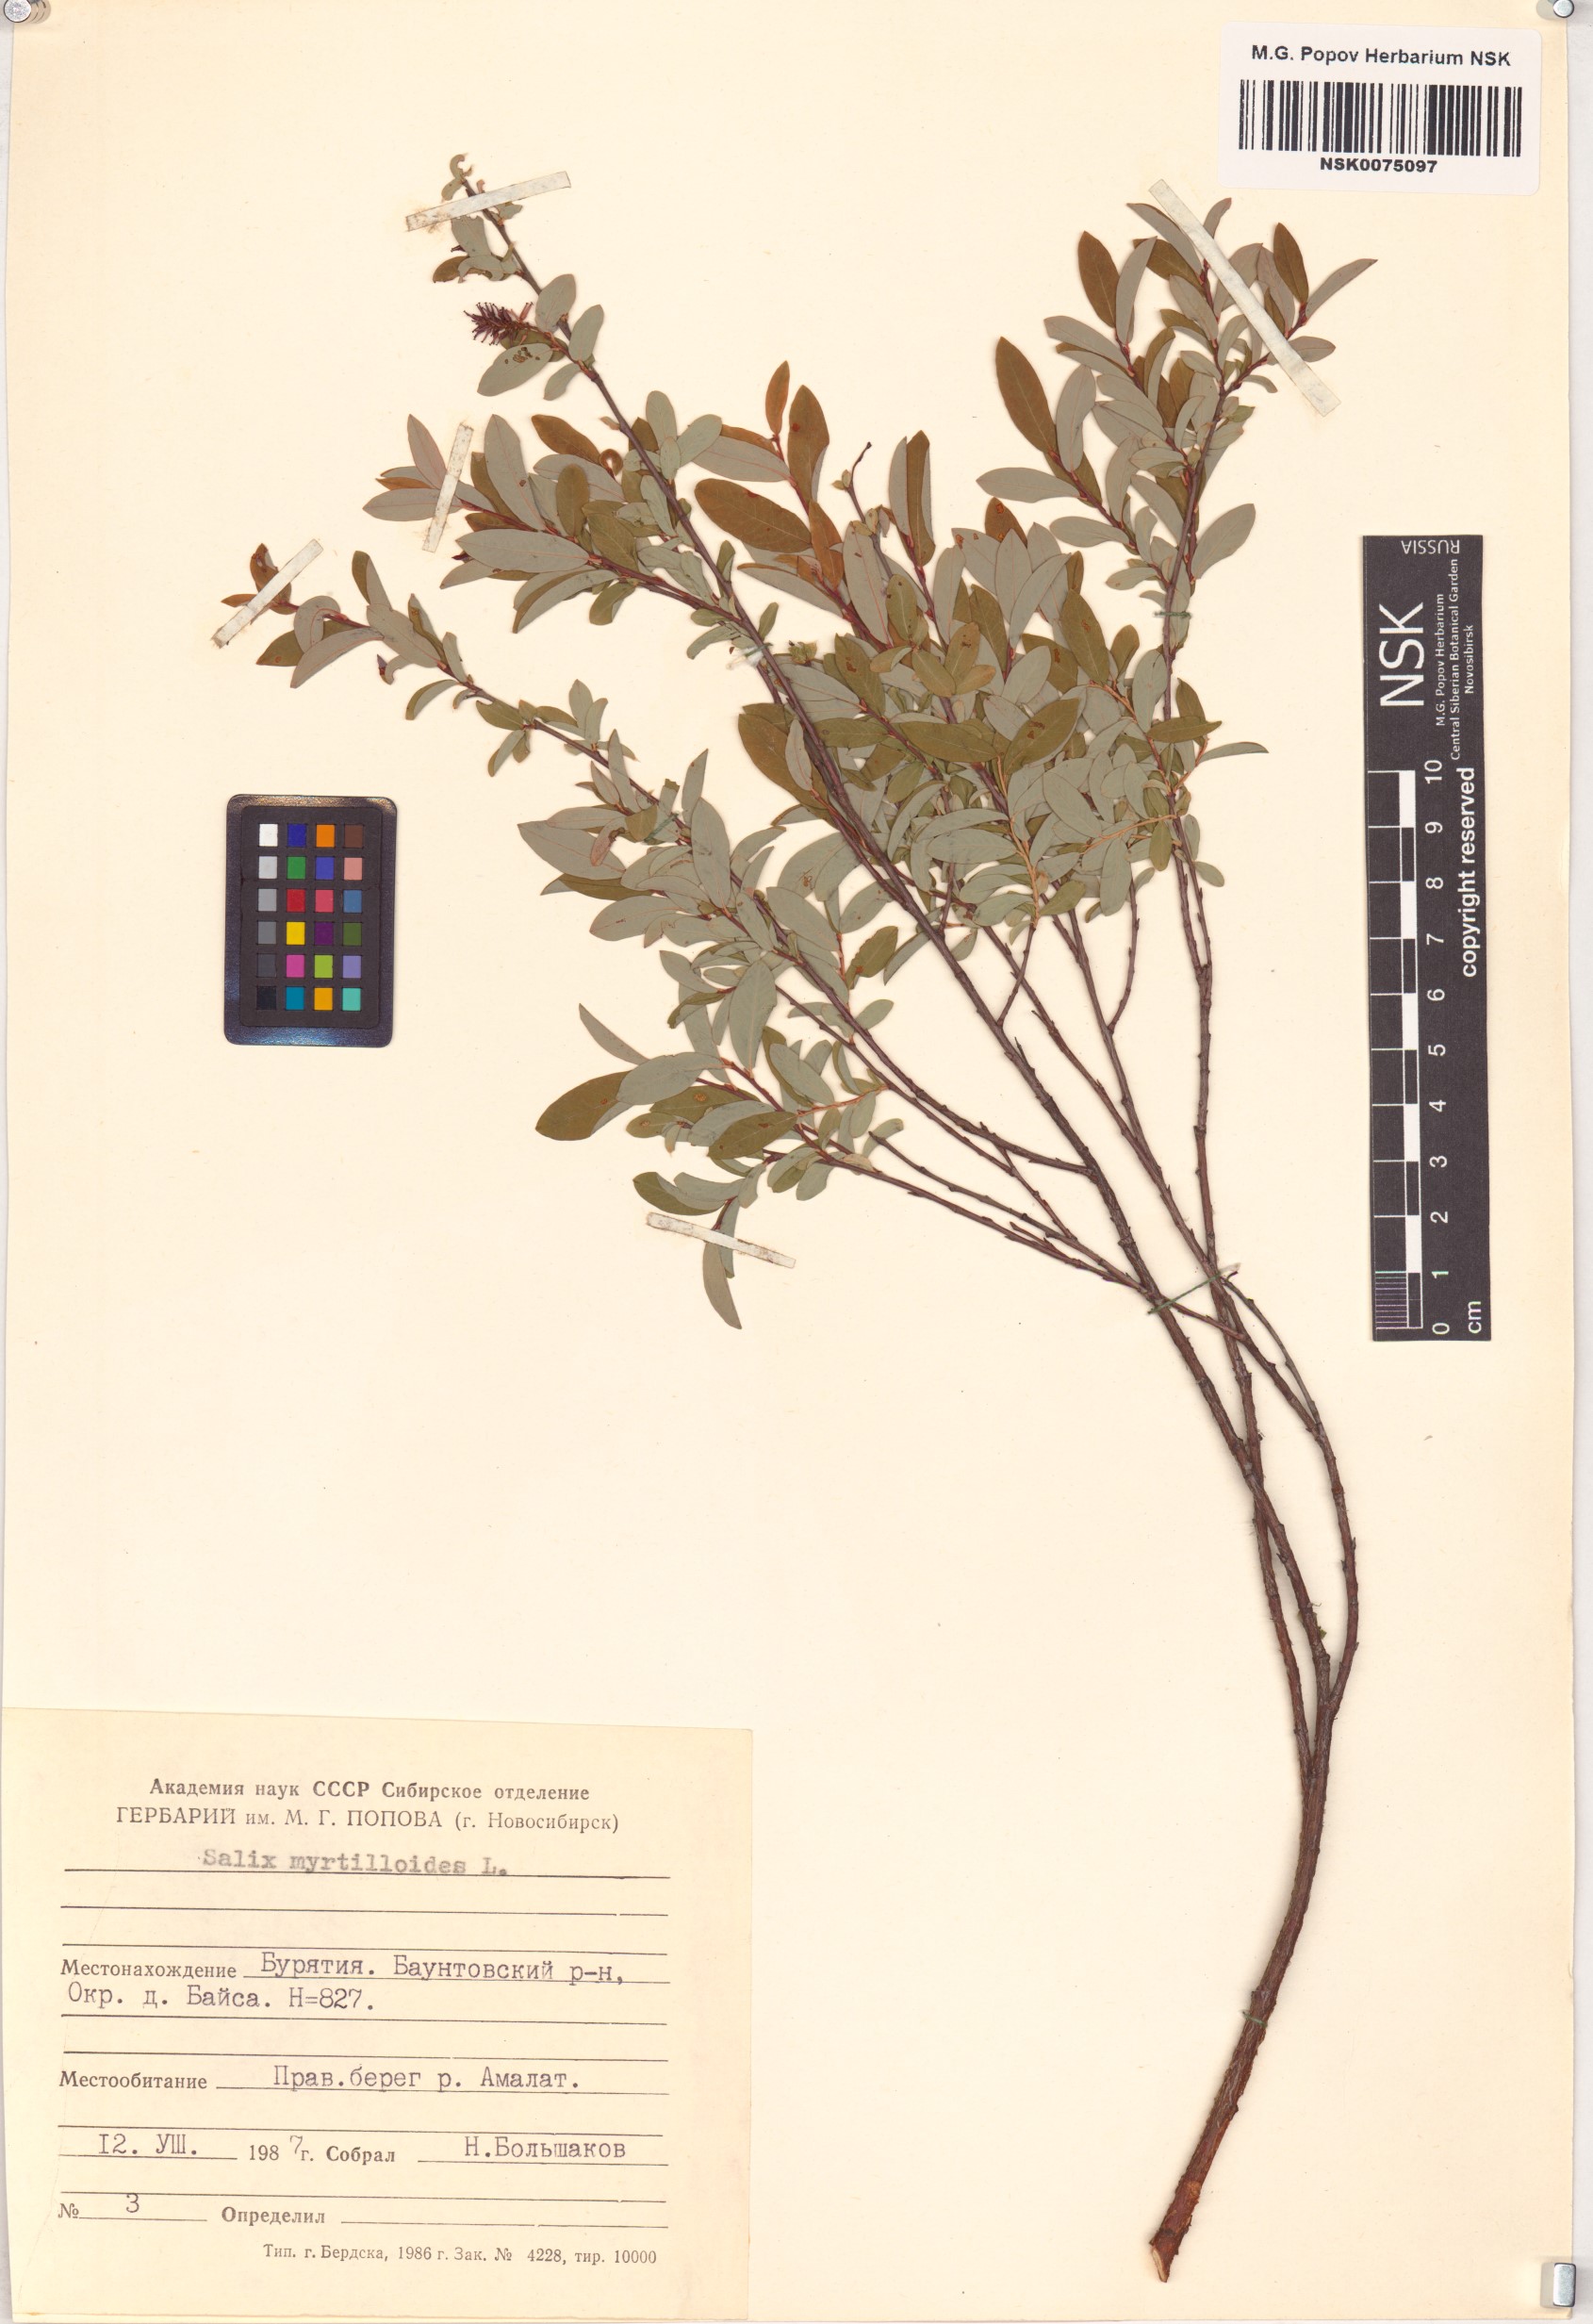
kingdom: Plantae
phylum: Tracheophyta
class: Magnoliopsida
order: Malpighiales
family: Salicaceae
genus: Salix
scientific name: Salix myrtilloides
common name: Myrtle-leaved willow
